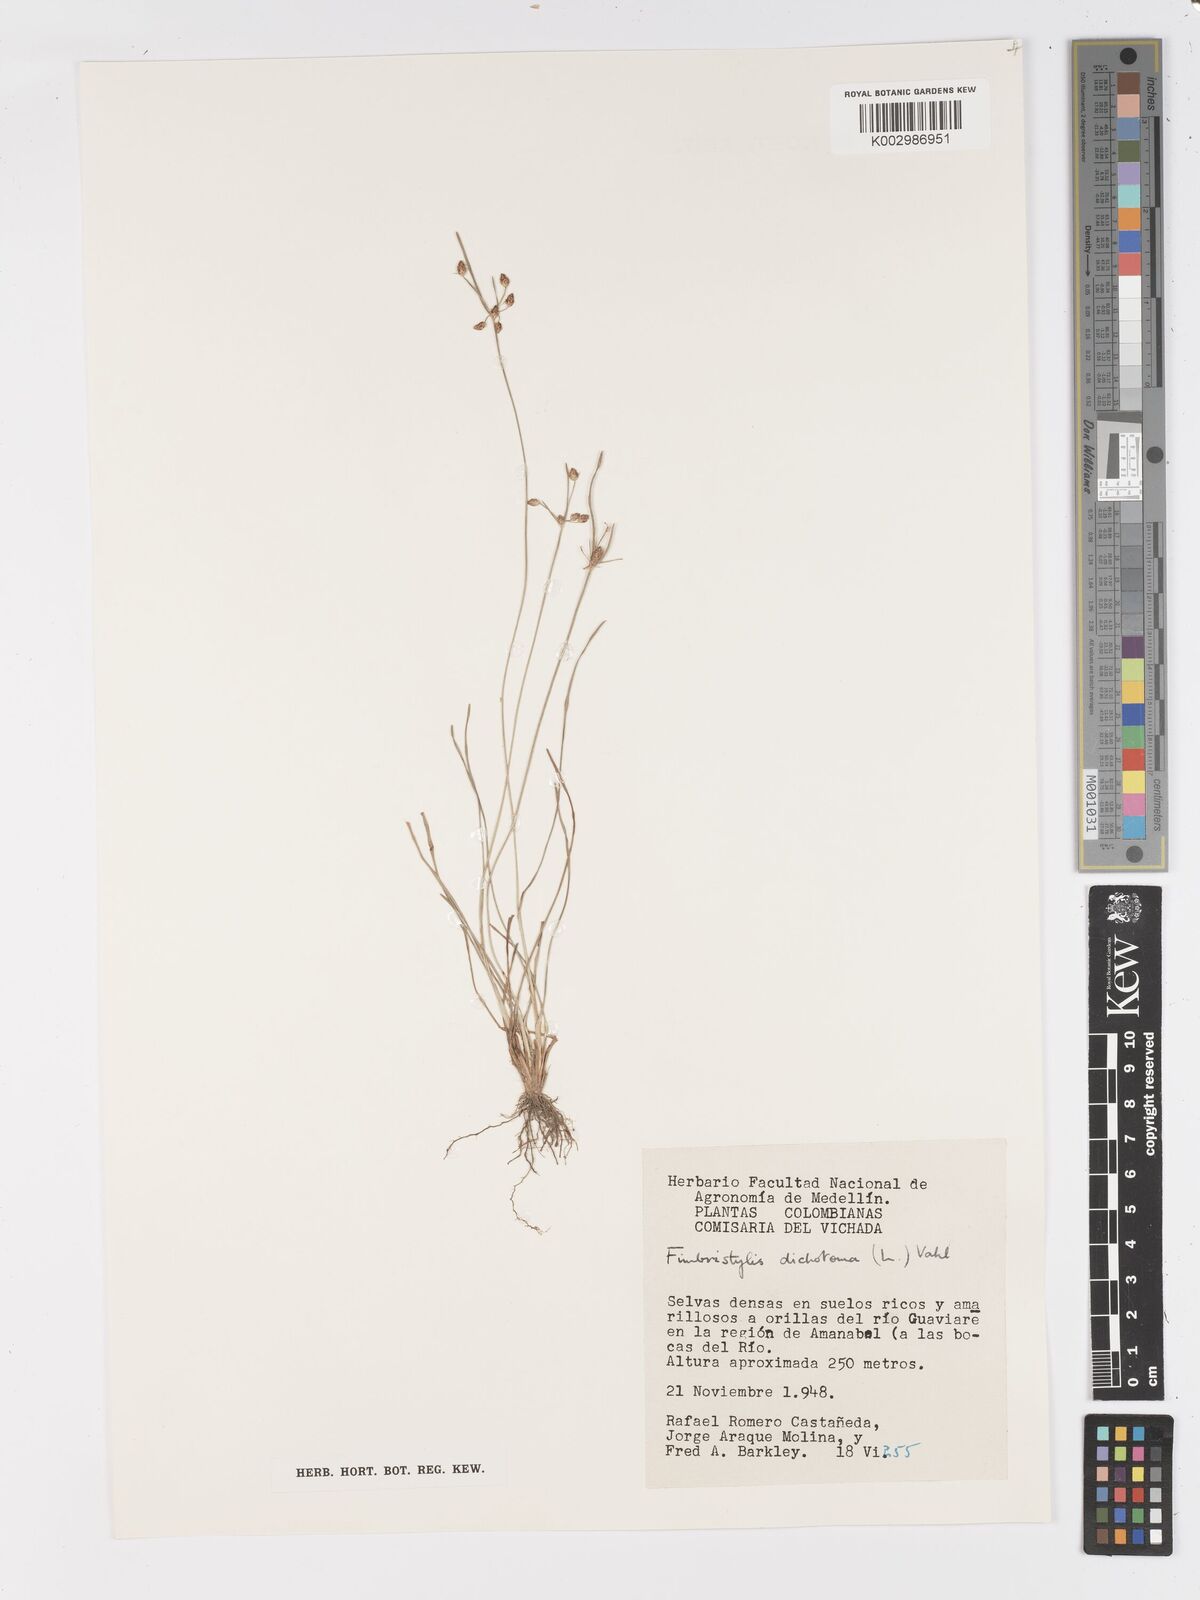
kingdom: Plantae
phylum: Tracheophyta
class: Liliopsida
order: Poales
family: Cyperaceae
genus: Fimbristylis
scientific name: Fimbristylis dichotoma
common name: Forked fimbry
